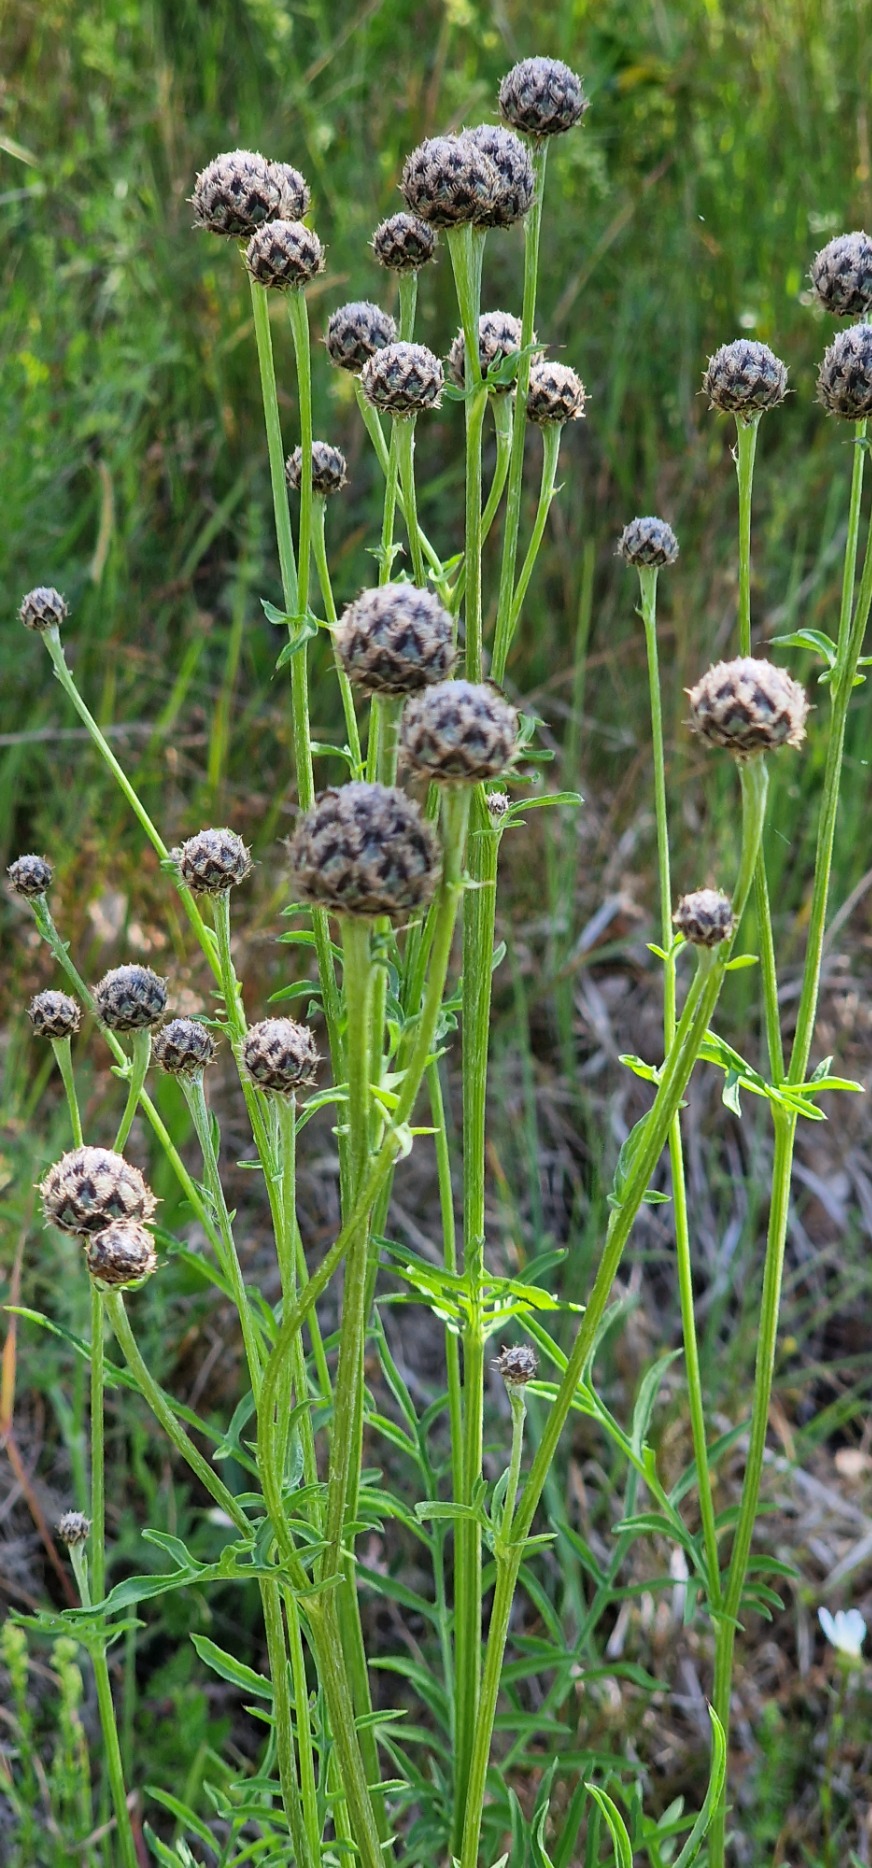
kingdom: Plantae
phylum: Tracheophyta
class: Magnoliopsida
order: Asterales
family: Asteraceae
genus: Centaurea
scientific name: Centaurea scabiosa
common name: Stor knopurt
